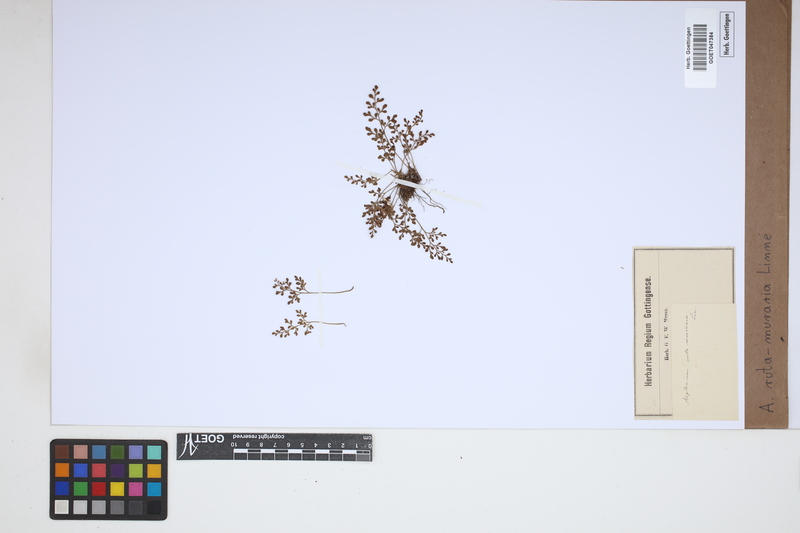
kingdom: Plantae
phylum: Tracheophyta
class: Polypodiopsida
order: Polypodiales
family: Aspleniaceae
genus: Asplenium
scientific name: Asplenium ruta-muraria
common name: Wall-rue
